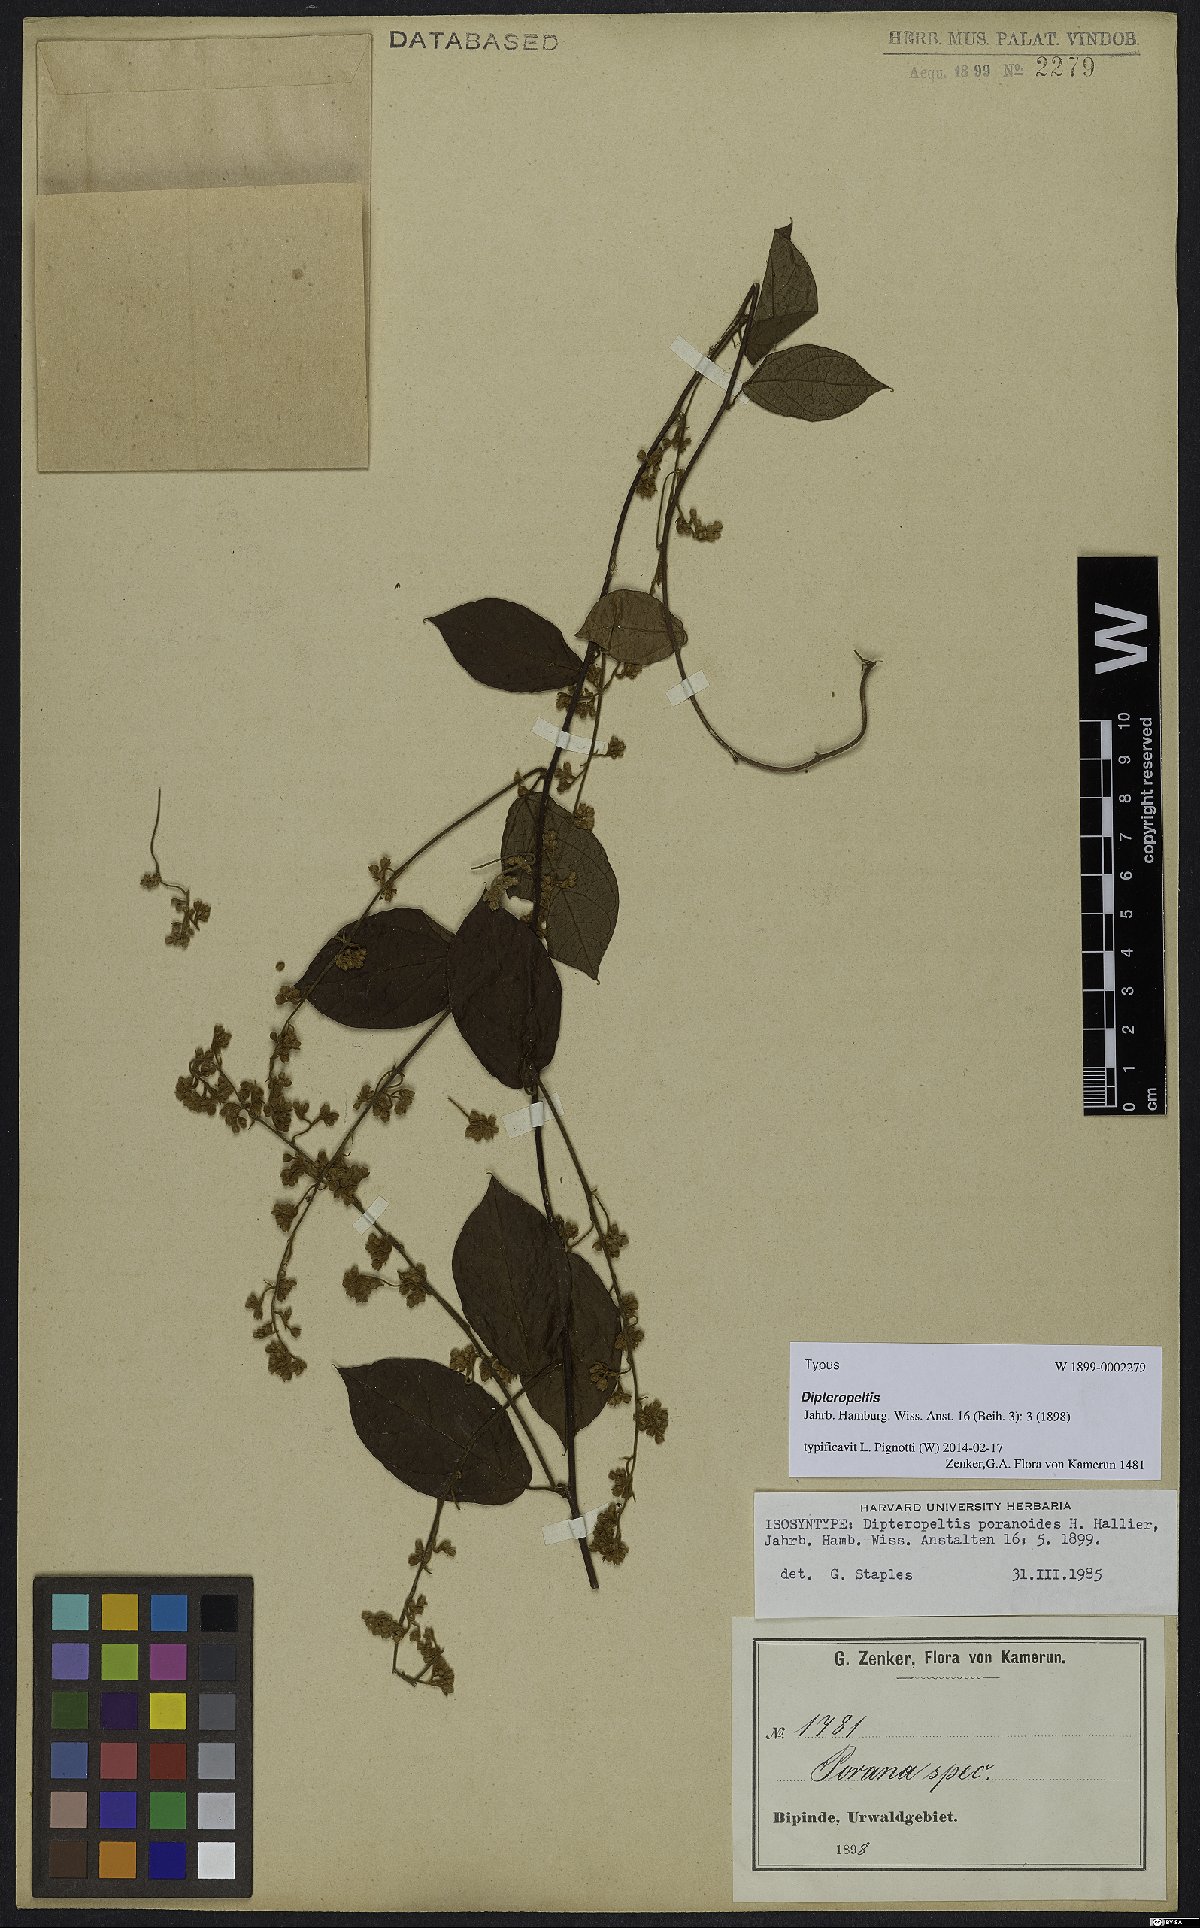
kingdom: Plantae
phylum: Tracheophyta
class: Magnoliopsida
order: Solanales
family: Convolvulaceae
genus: Dipteropeltis
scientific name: Dipteropeltis poranoides
